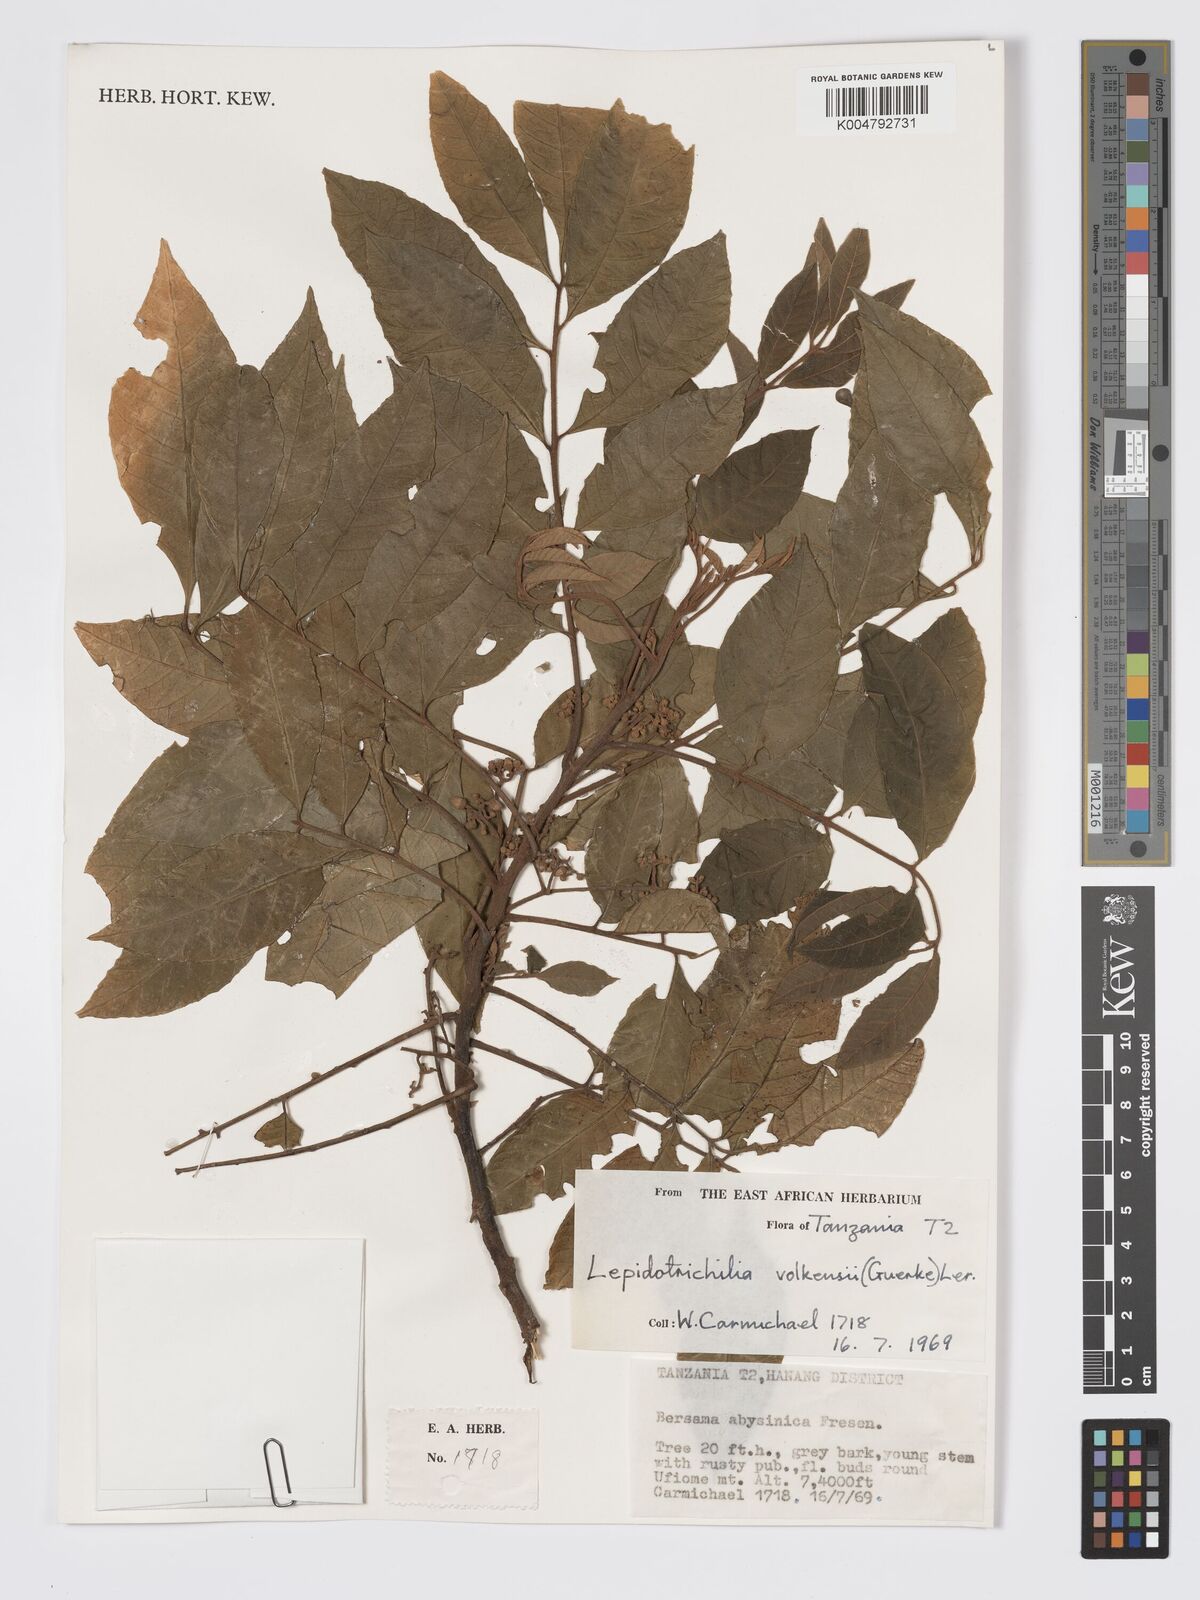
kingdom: Plantae
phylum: Tracheophyta
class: Magnoliopsida
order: Sapindales
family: Meliaceae
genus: Lepidotrichilia
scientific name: Lepidotrichilia volkensii
